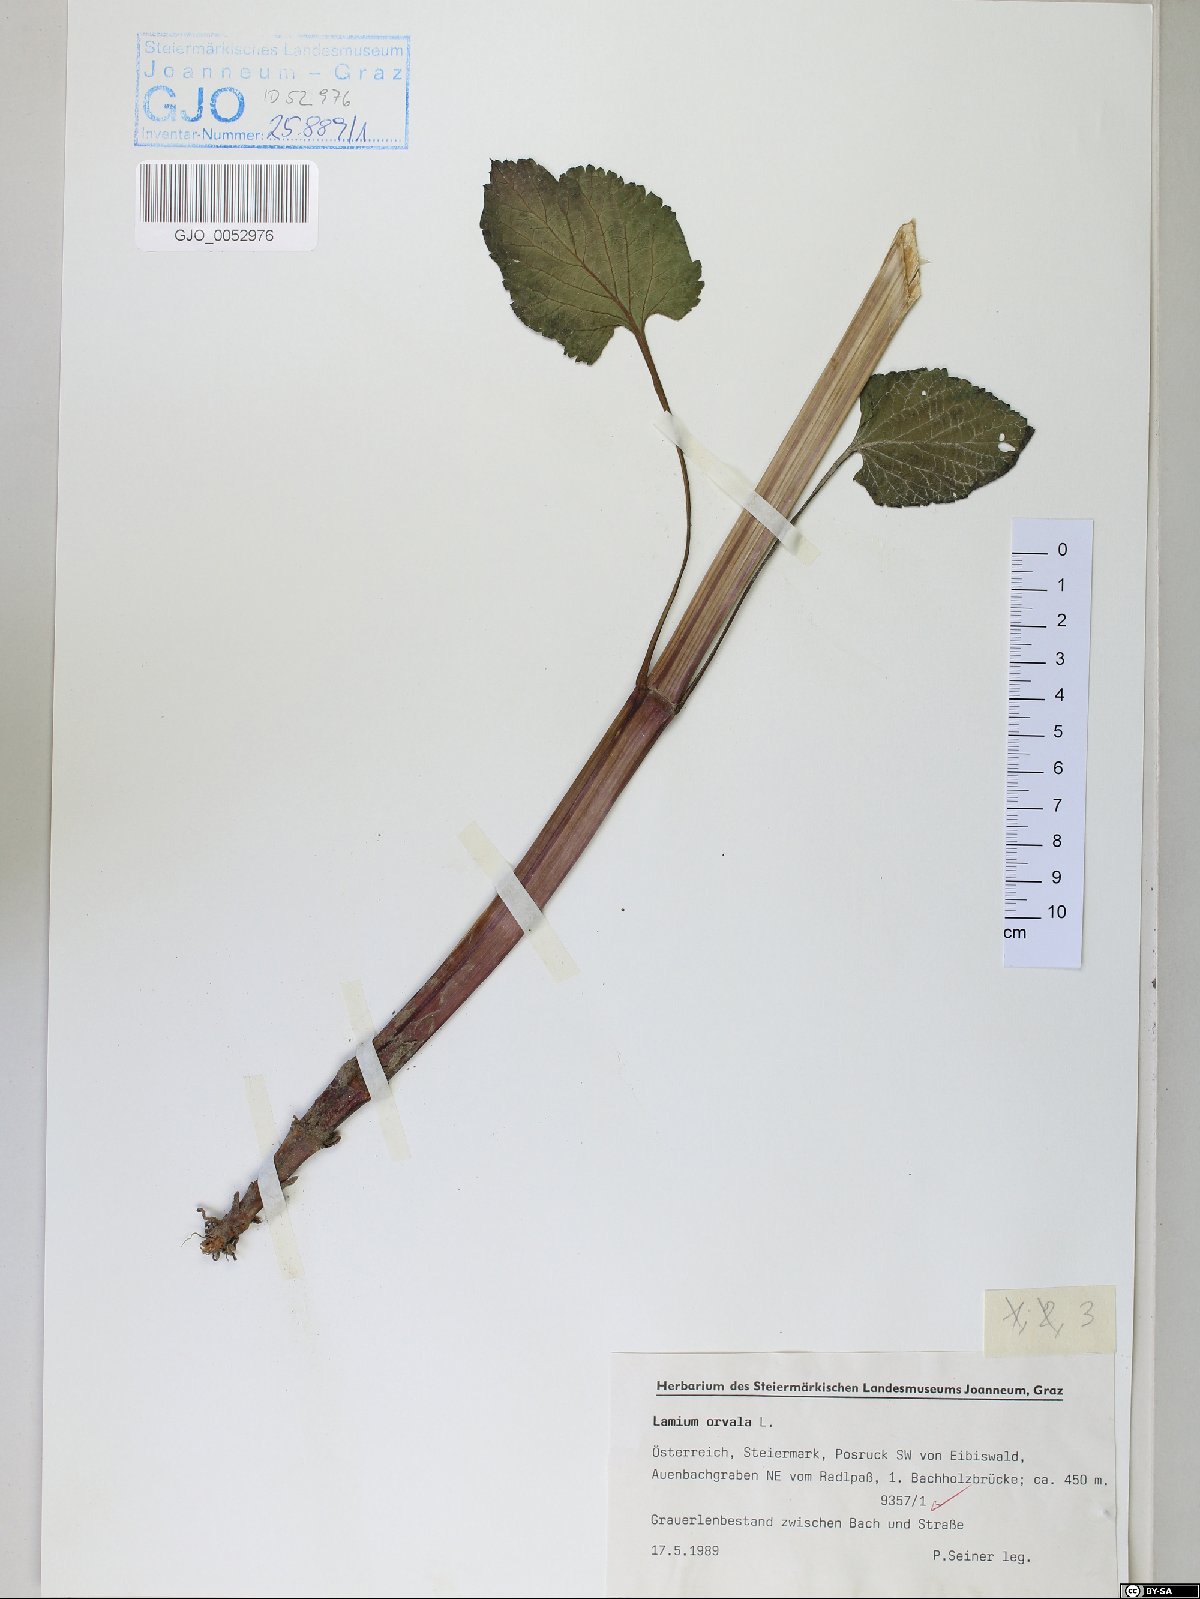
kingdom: Plantae
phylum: Tracheophyta
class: Magnoliopsida
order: Lamiales
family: Lamiaceae
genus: Lamium
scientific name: Lamium orvala
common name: Balm-leaved archangel
